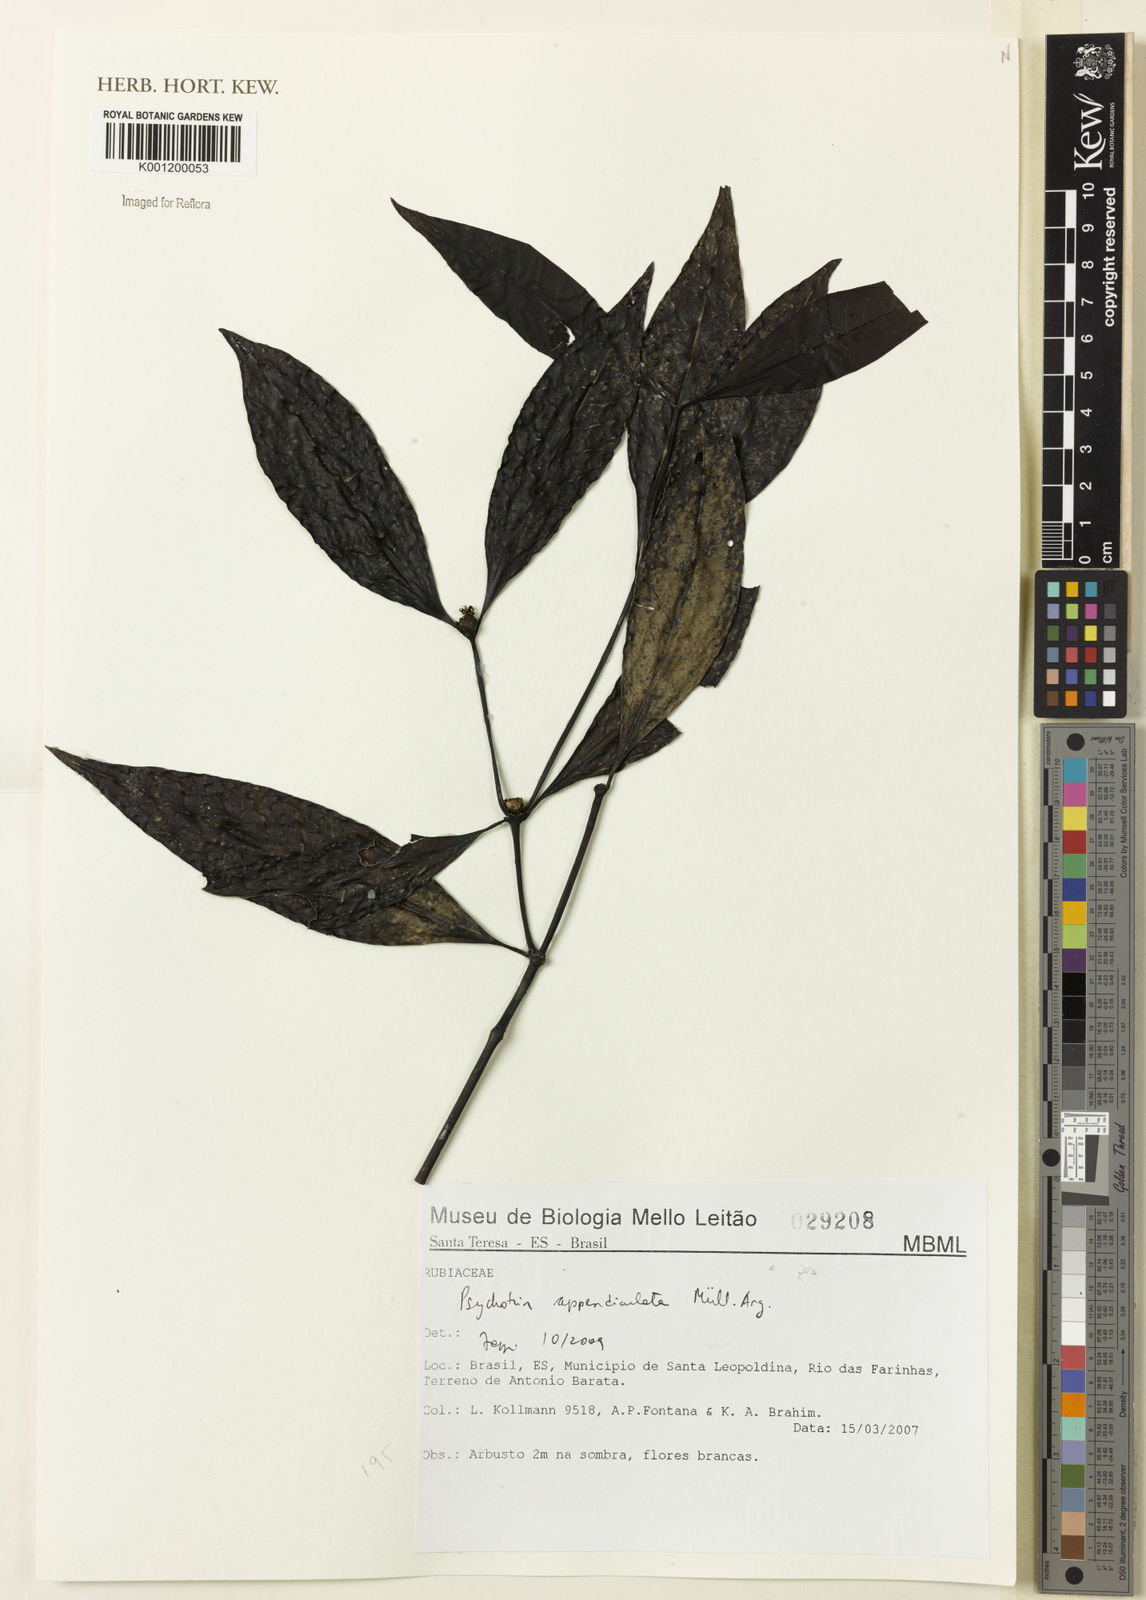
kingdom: Plantae
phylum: Tracheophyta
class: Magnoliopsida
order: Gentianales
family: Rubiaceae
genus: Psychotria
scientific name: Psychotria
